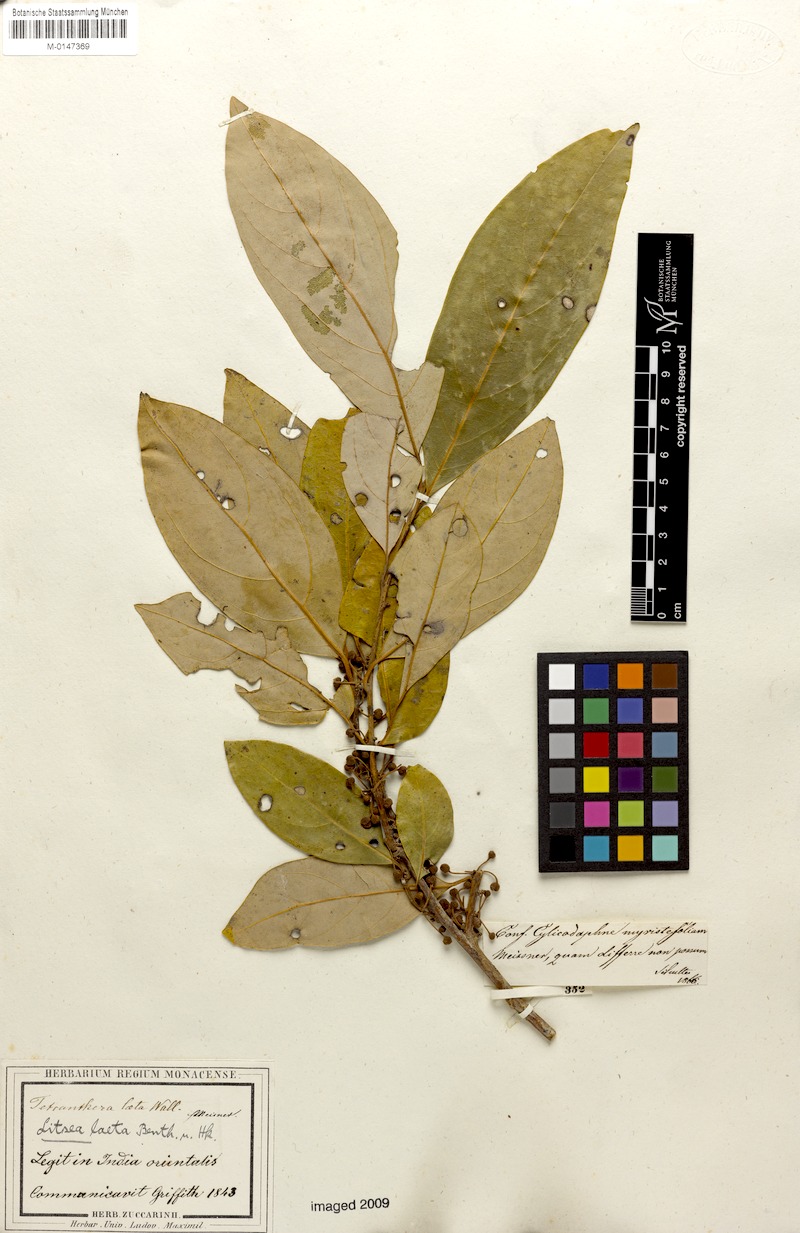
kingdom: Plantae
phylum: Tracheophyta
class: Magnoliopsida
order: Laurales
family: Lauraceae
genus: Litsea
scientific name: Litsea laeta
